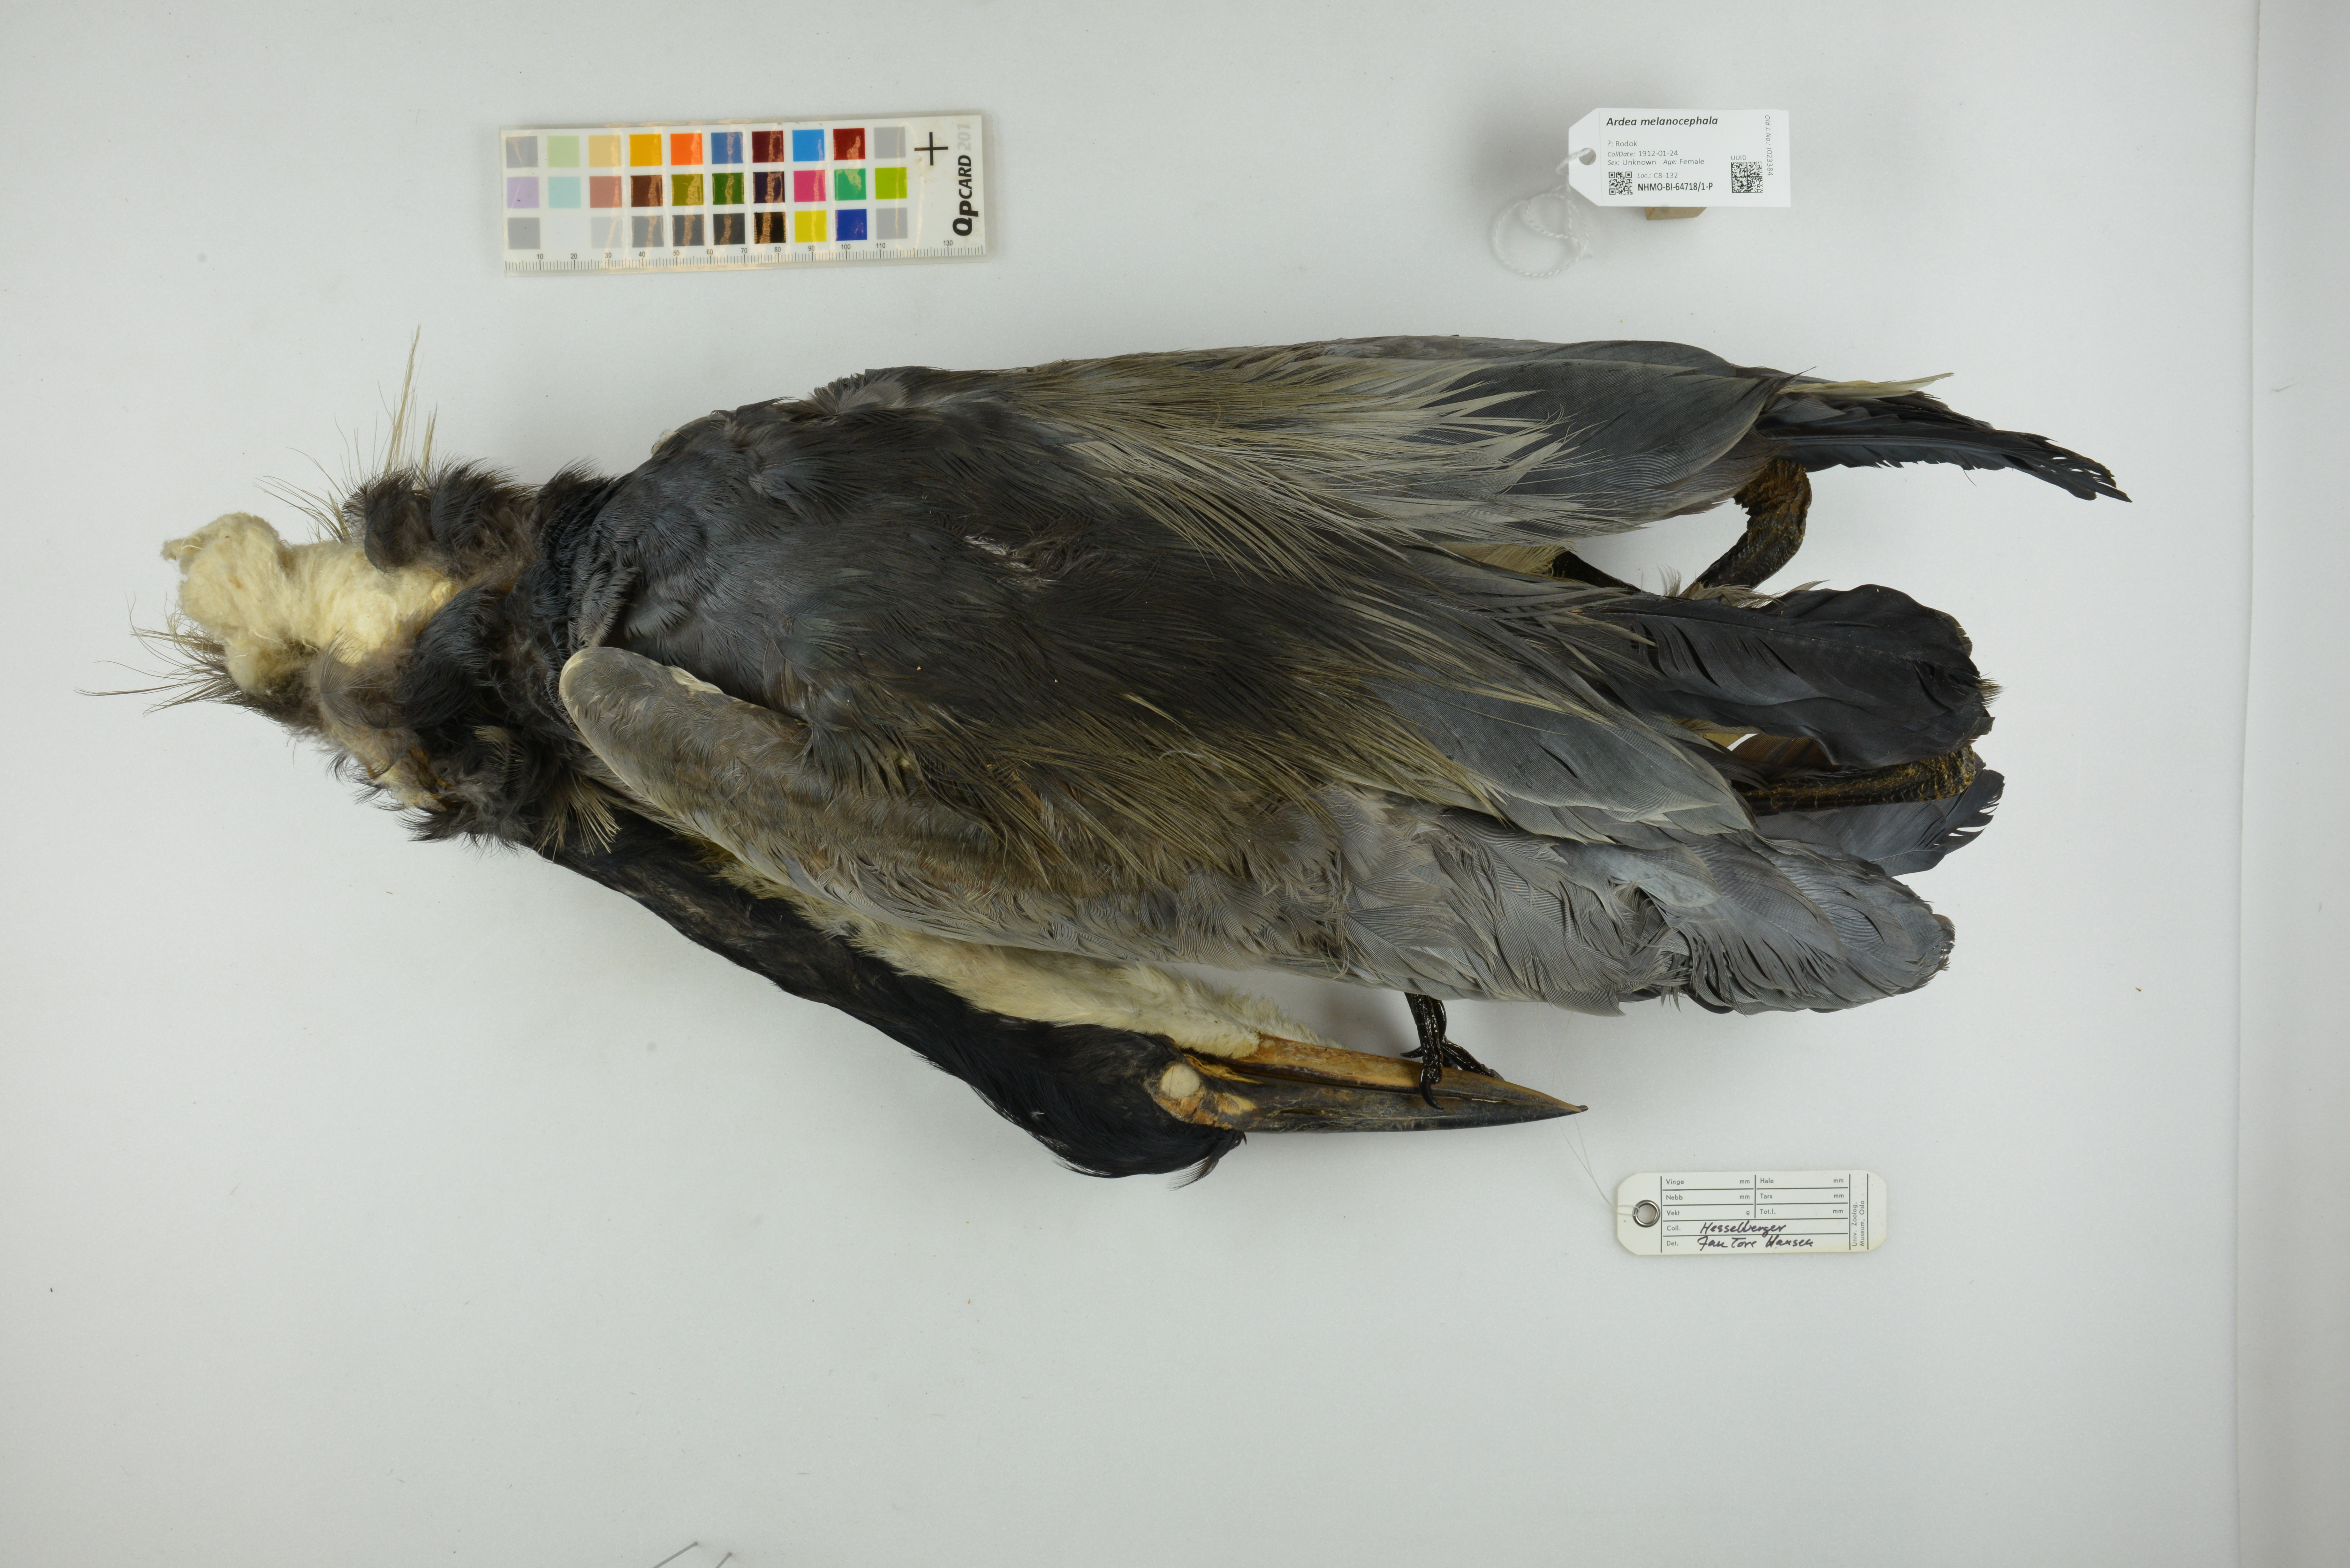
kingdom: Animalia
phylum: Chordata
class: Aves
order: Pelecaniformes
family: Ardeidae
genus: Ardea
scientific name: Ardea melanocephala
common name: Black-headed heron
